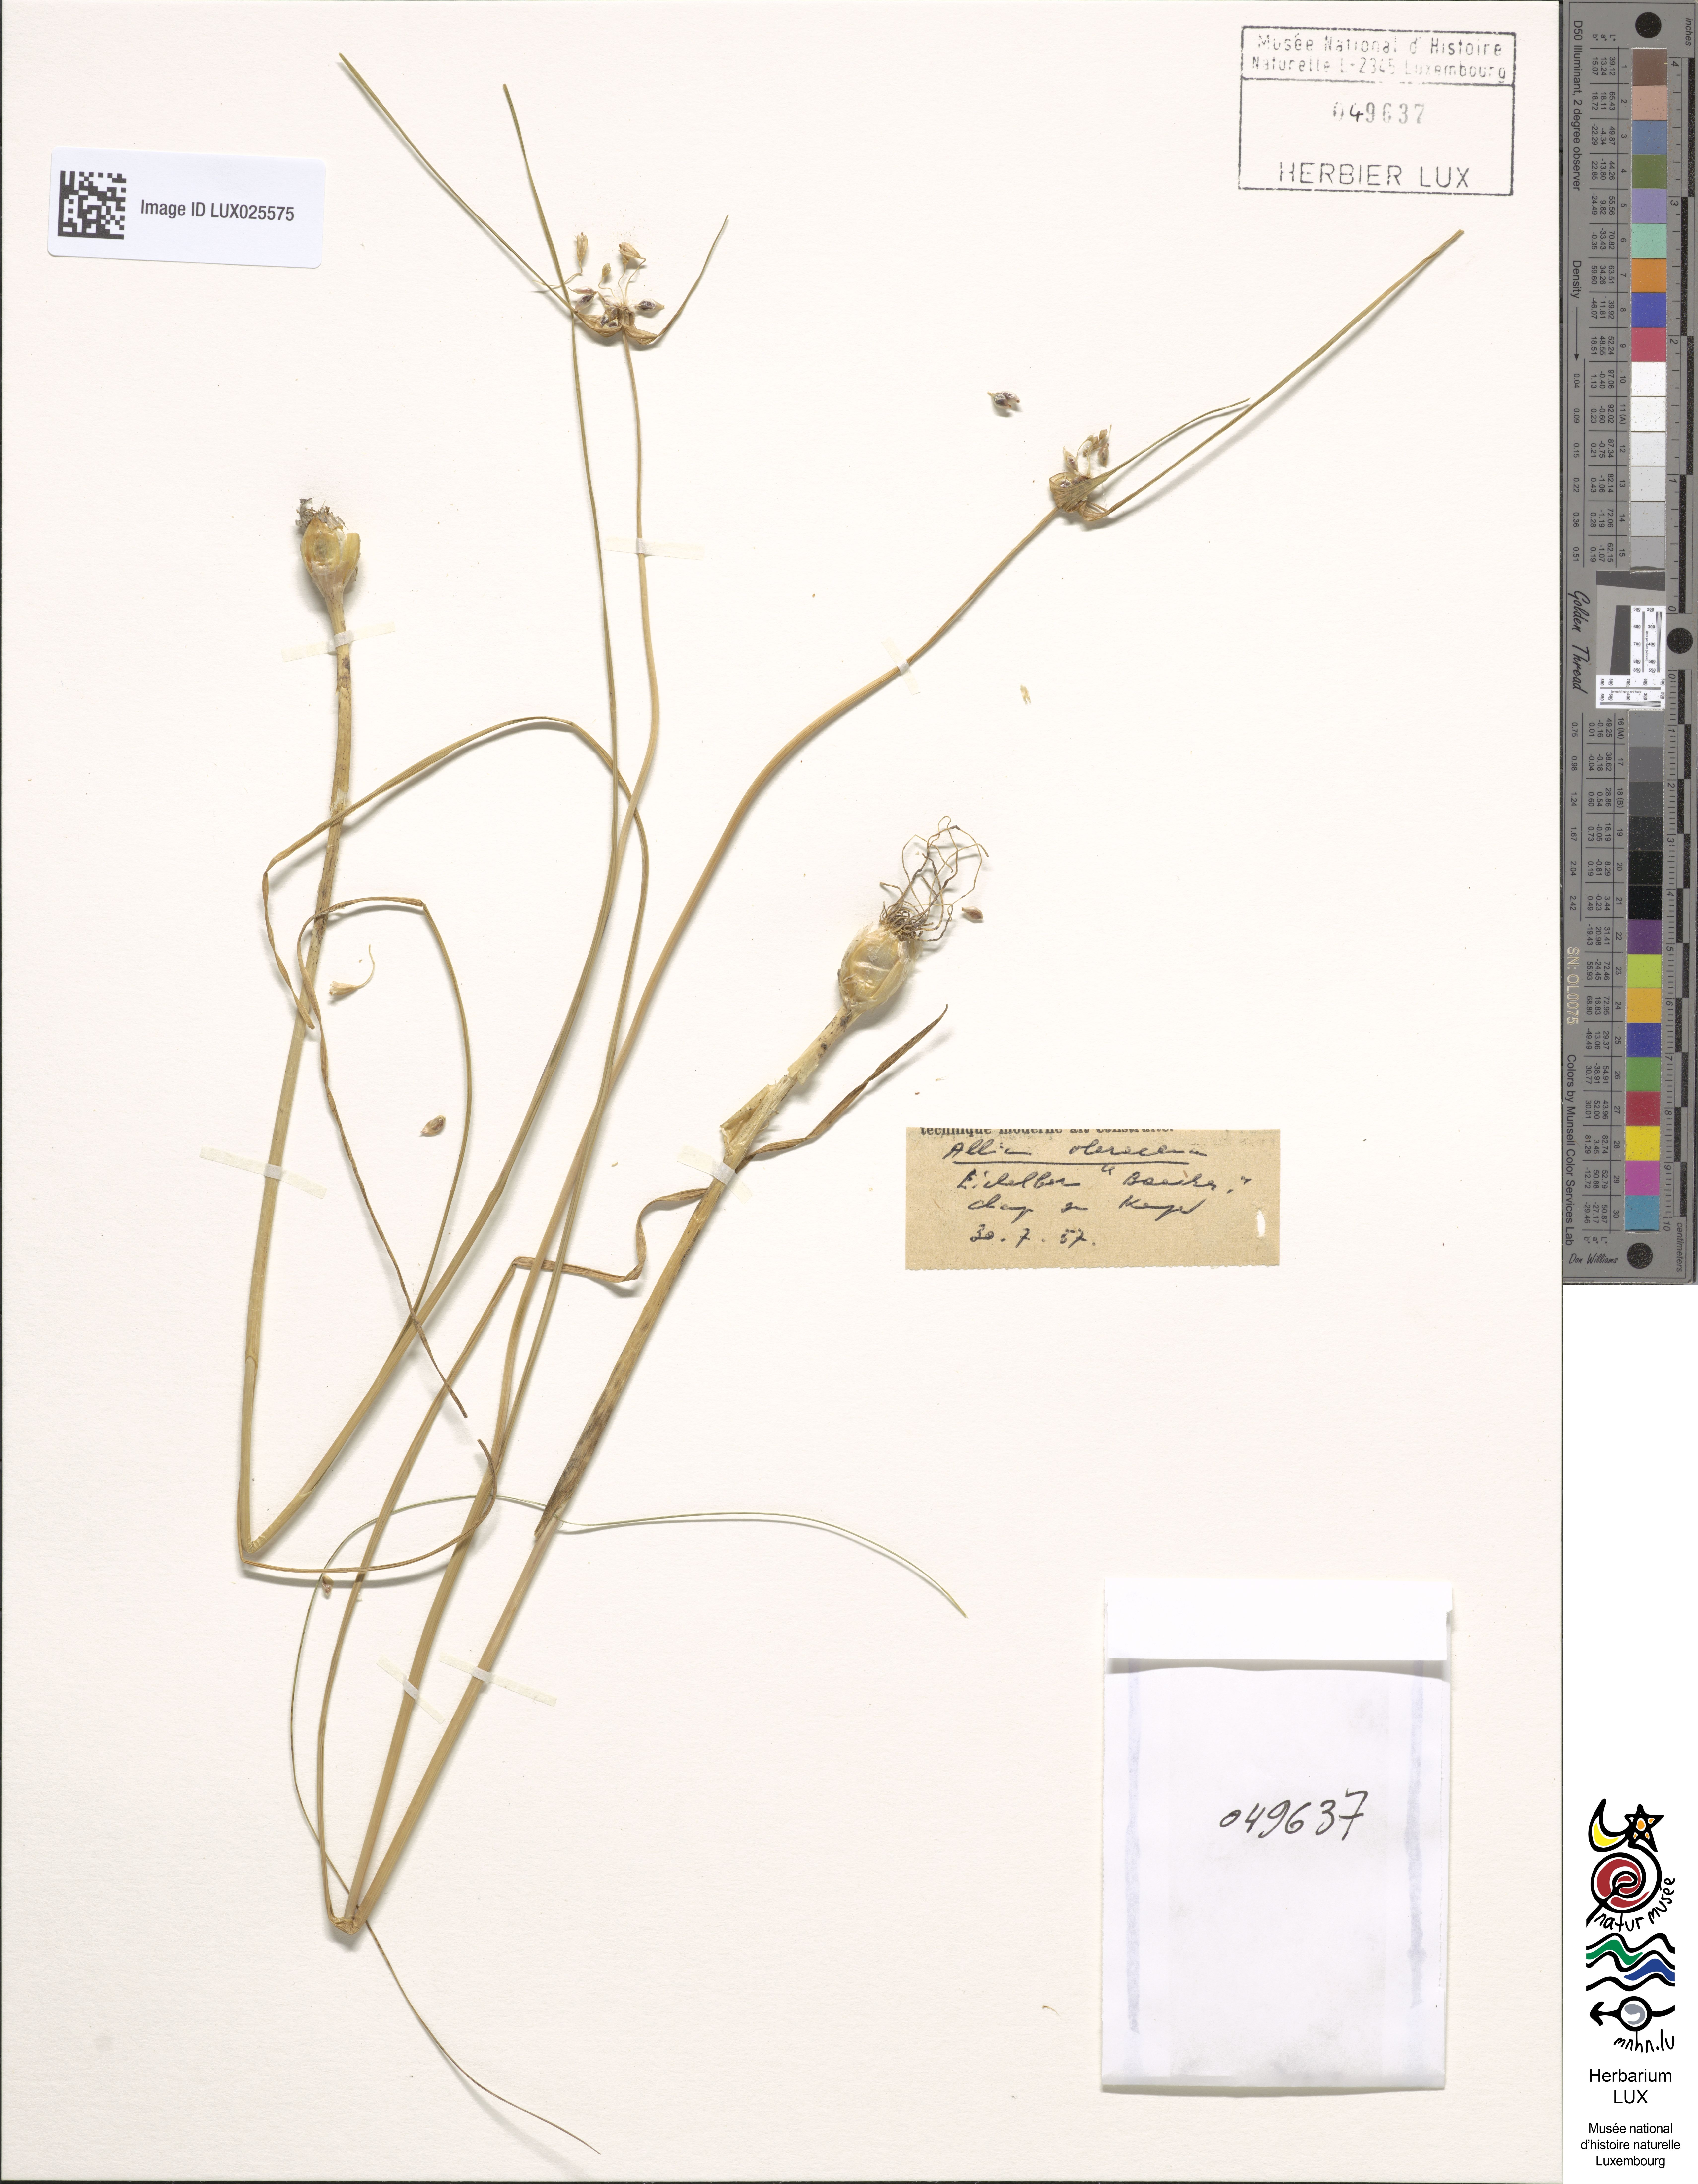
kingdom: Plantae
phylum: Tracheophyta
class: Liliopsida
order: Asparagales
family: Amaryllidaceae
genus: Allium
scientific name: Allium oleraceum
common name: Field garlic
